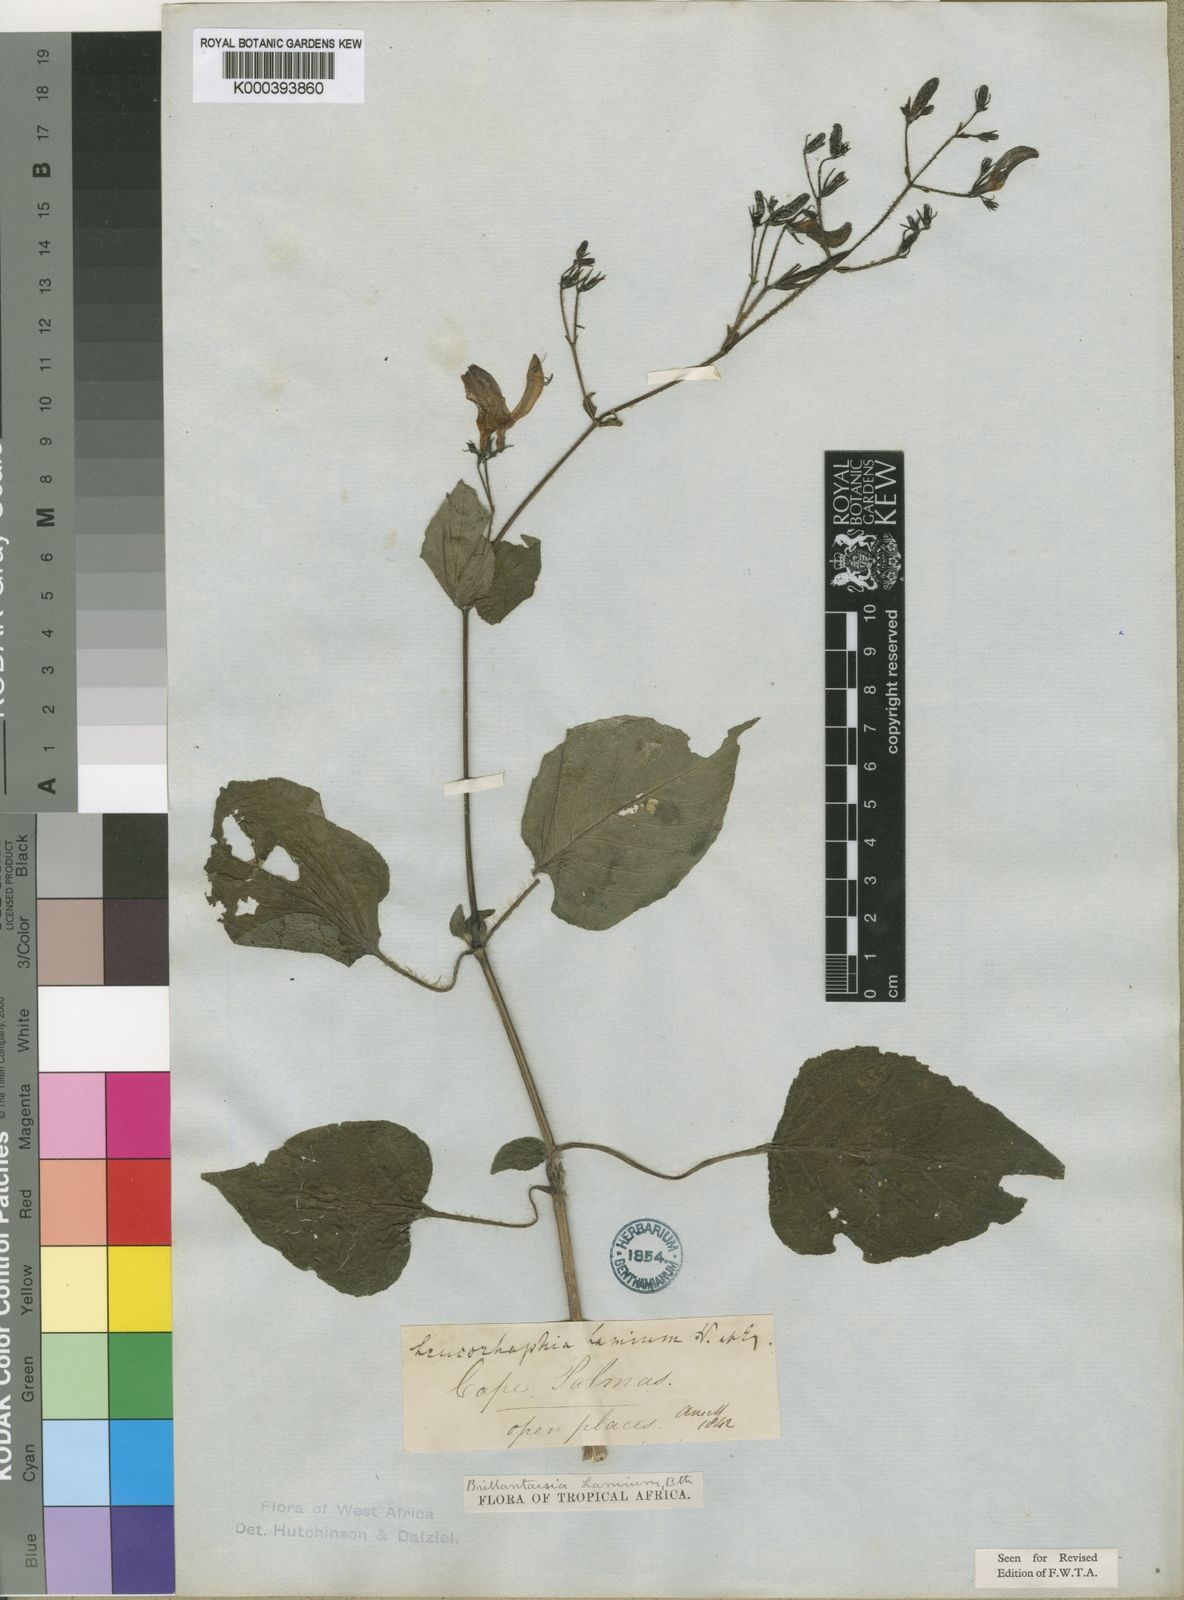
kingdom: Plantae
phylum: Tracheophyta
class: Magnoliopsida
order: Lamiales
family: Acanthaceae
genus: Brillantaisia
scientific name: Brillantaisia lamium
